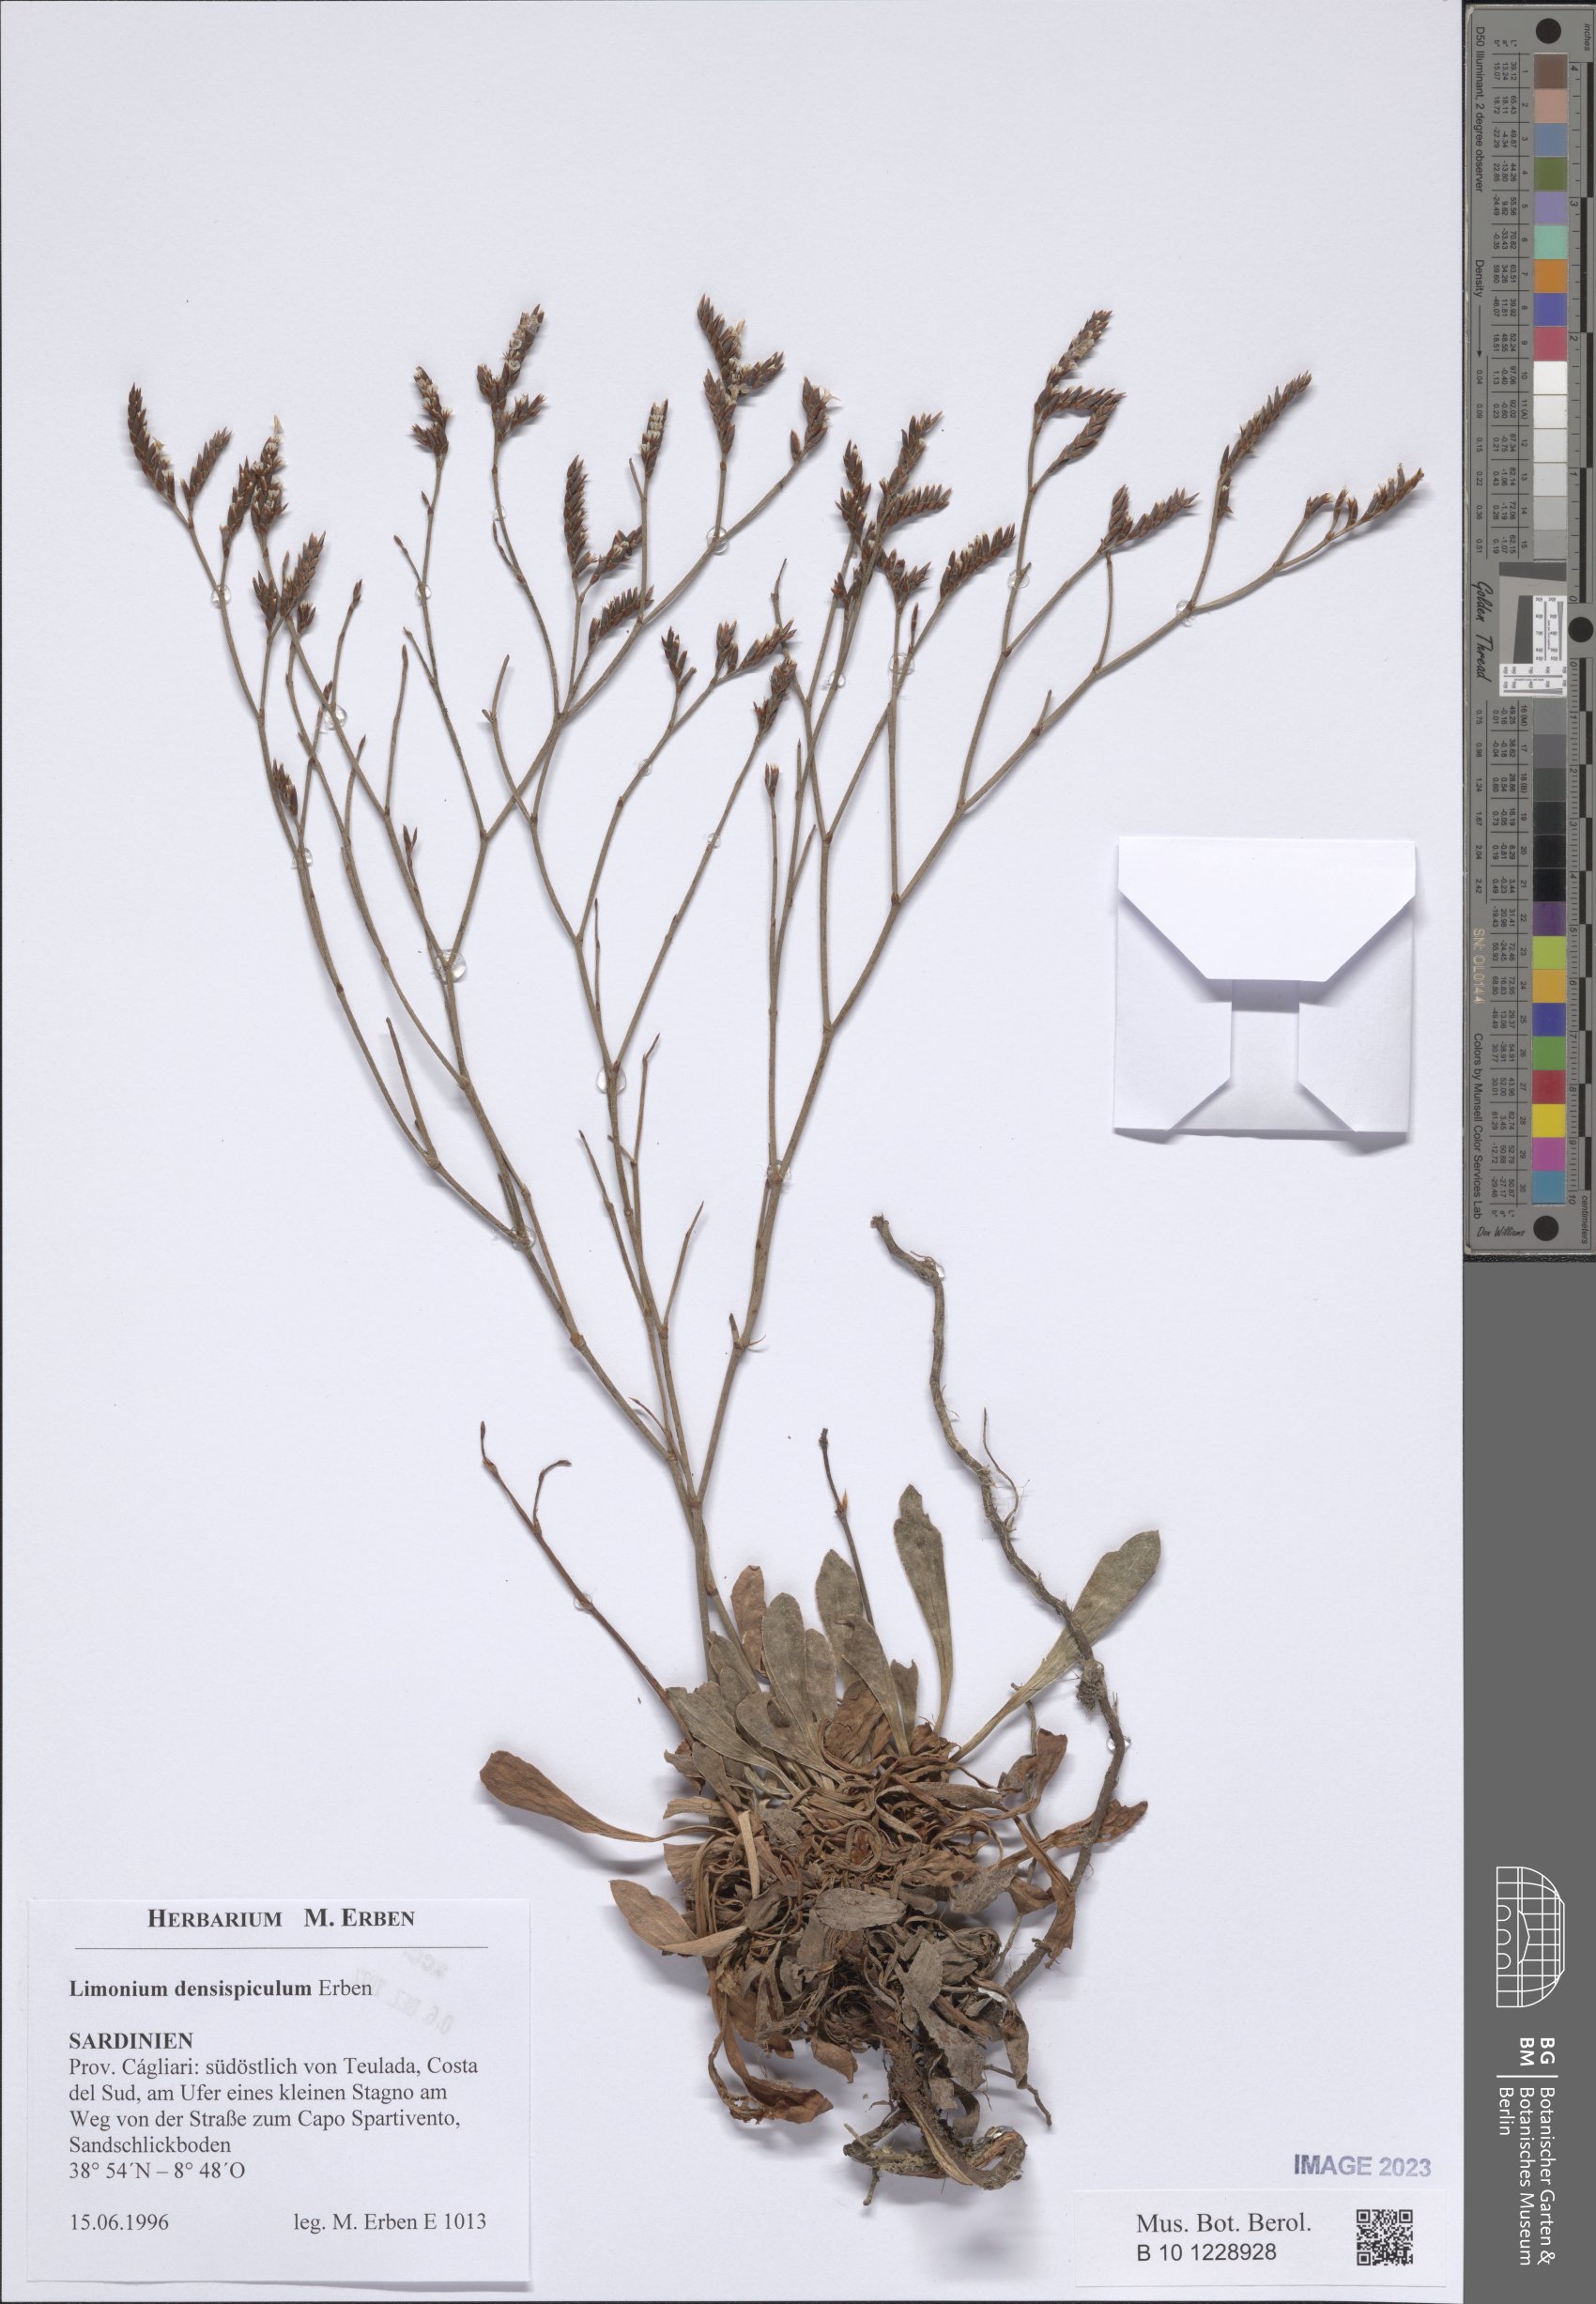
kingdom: Plantae
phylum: Tracheophyta
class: Magnoliopsida
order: Caryophyllales
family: Plumbaginaceae
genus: Limonium
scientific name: Limonium
